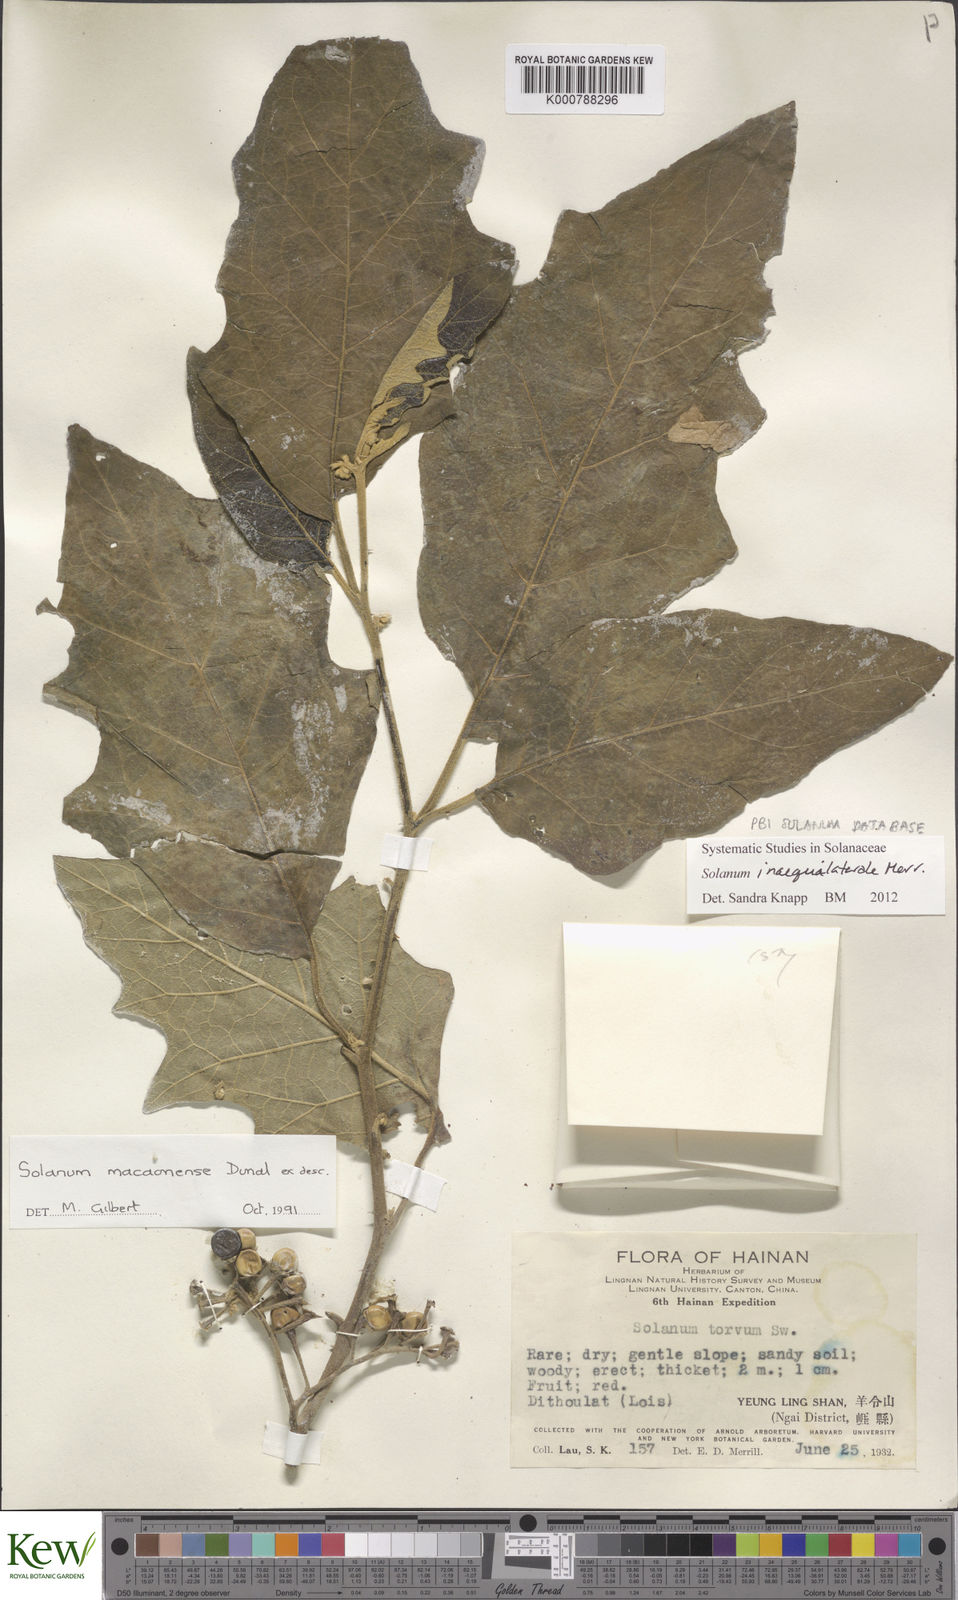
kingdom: Plantae
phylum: Tracheophyta
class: Magnoliopsida
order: Solanales
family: Solanaceae
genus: Solanum
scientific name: Solanum pseudosaponaceum
